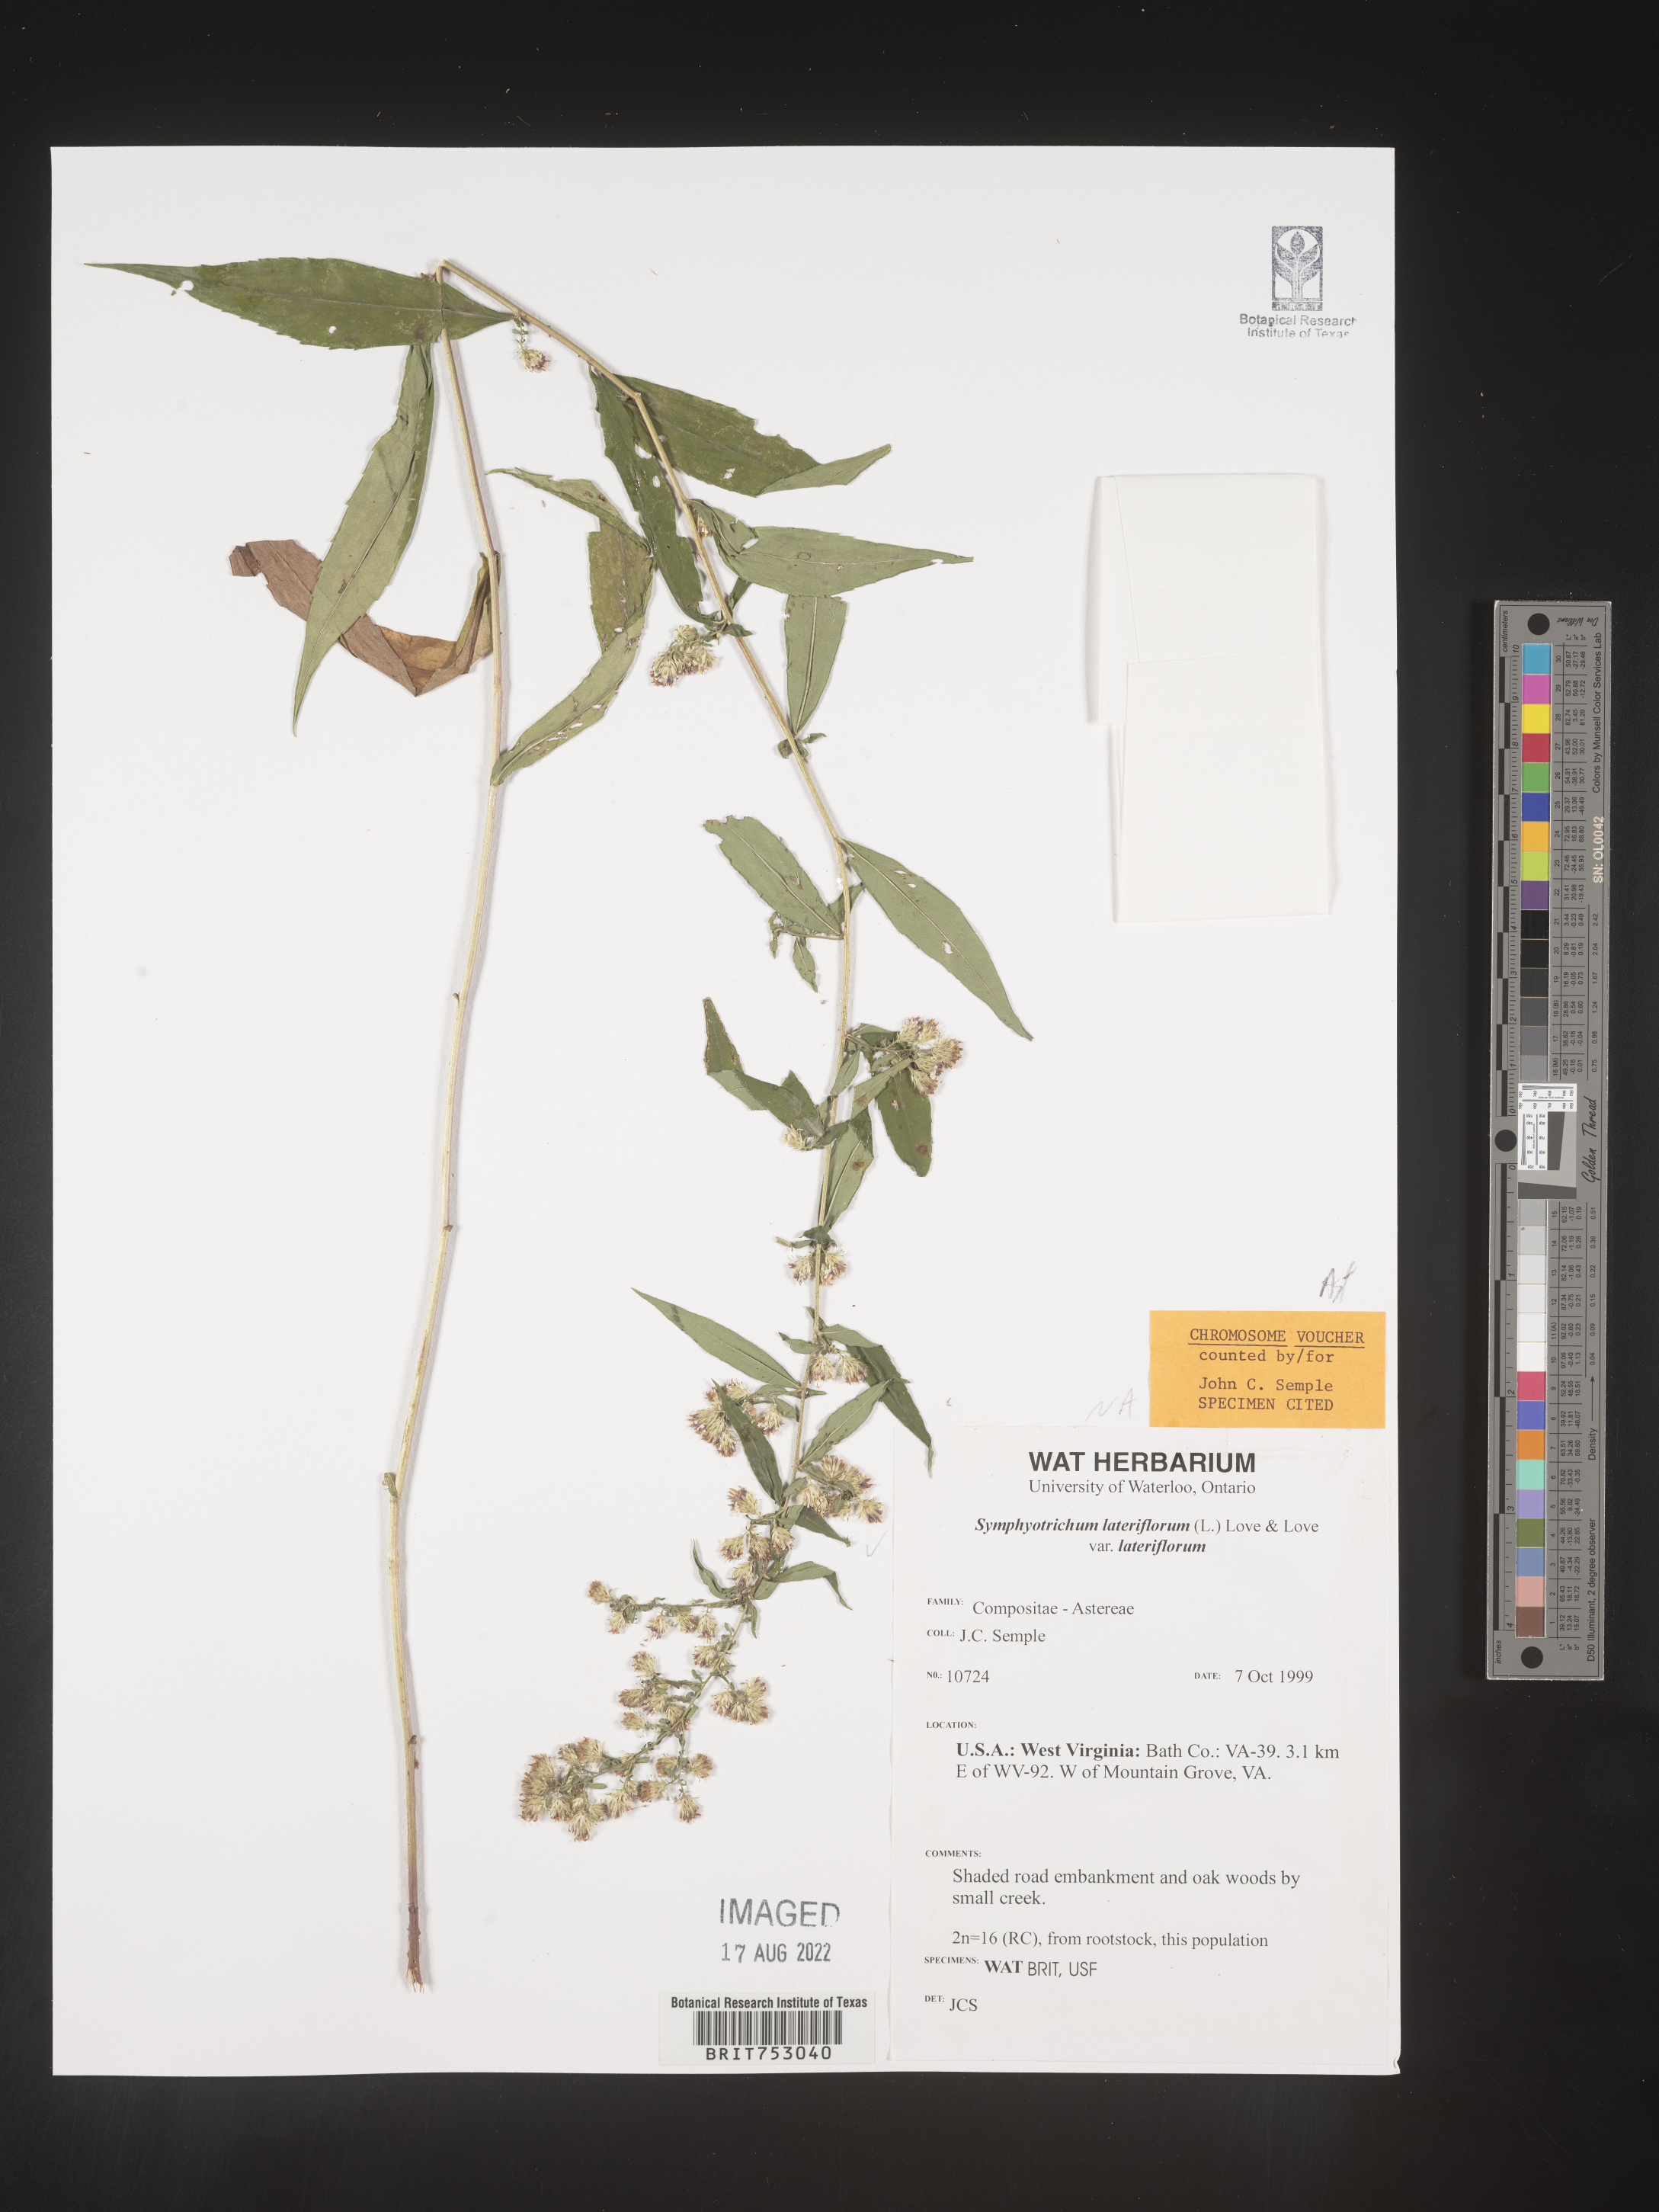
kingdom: Plantae
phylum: Tracheophyta
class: Magnoliopsida
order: Asterales
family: Asteraceae
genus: Symphyotrichum
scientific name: Symphyotrichum lateriflorum
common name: Calico aster
